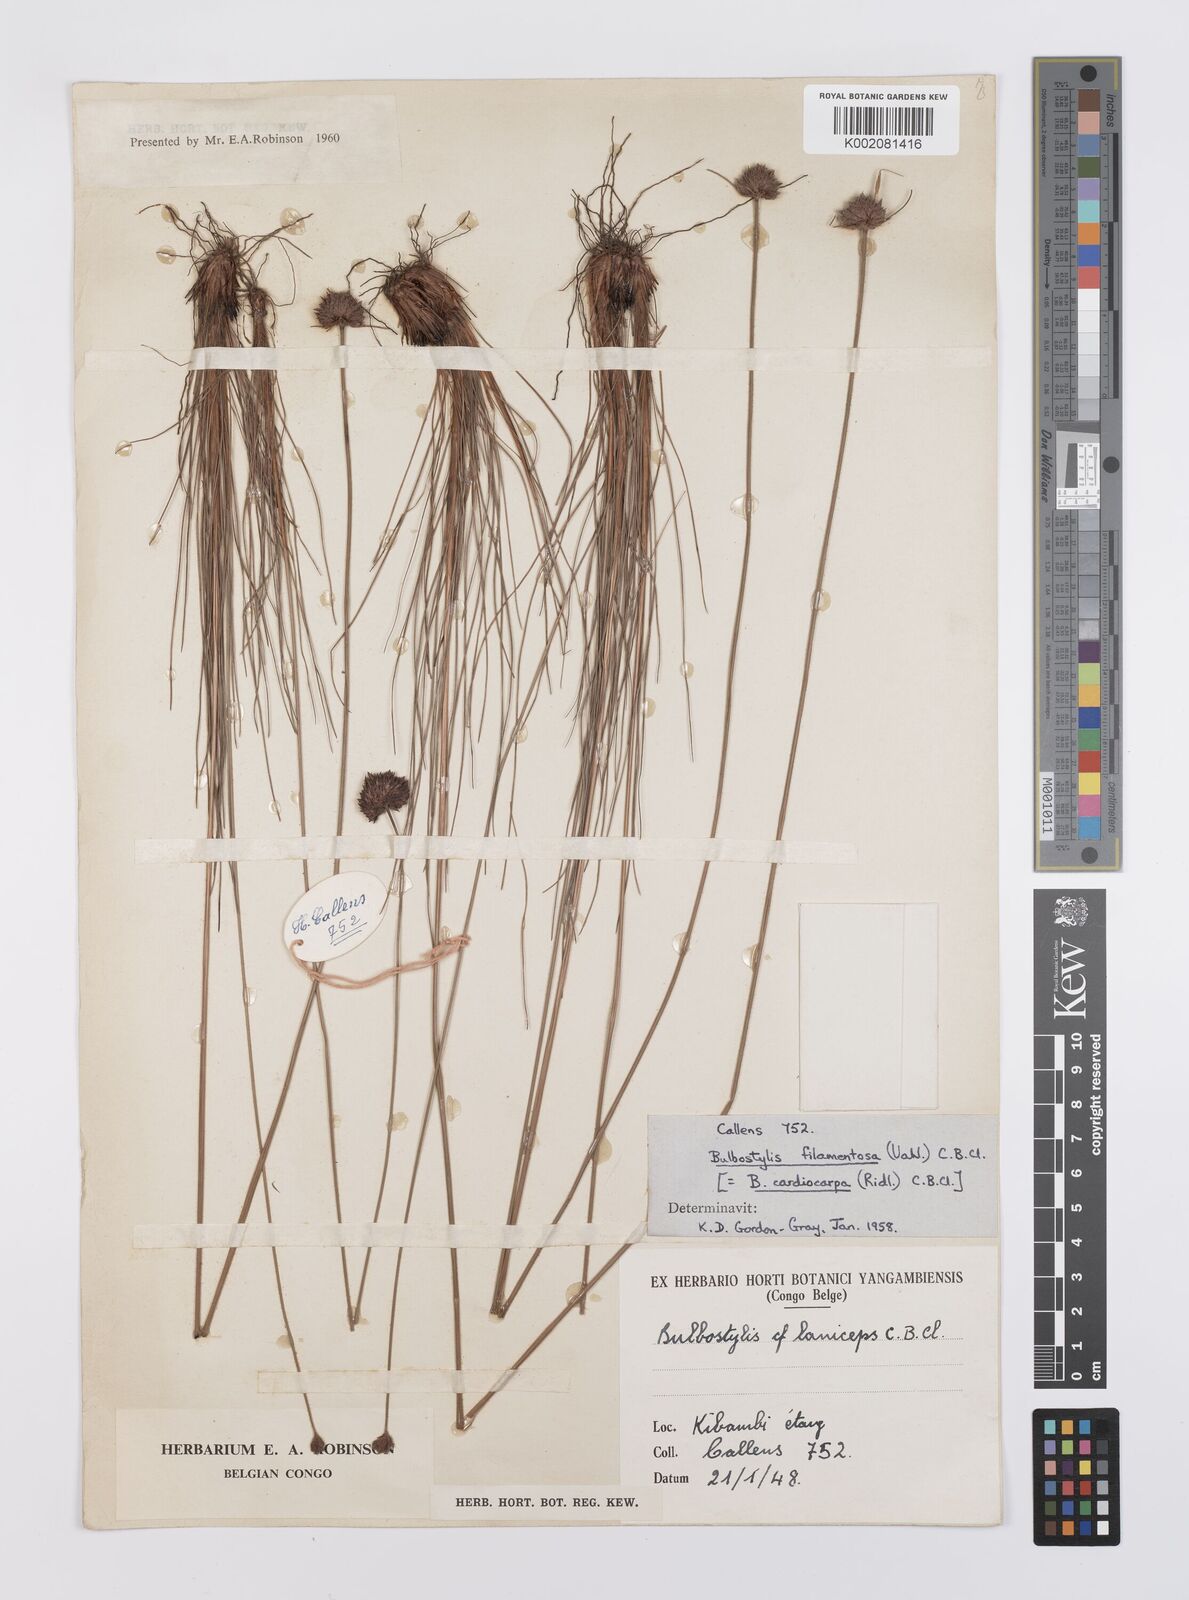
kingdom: Plantae
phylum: Tracheophyta
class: Liliopsida
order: Poales
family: Cyperaceae
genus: Bulbostylis
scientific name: Bulbostylis filamentosa
